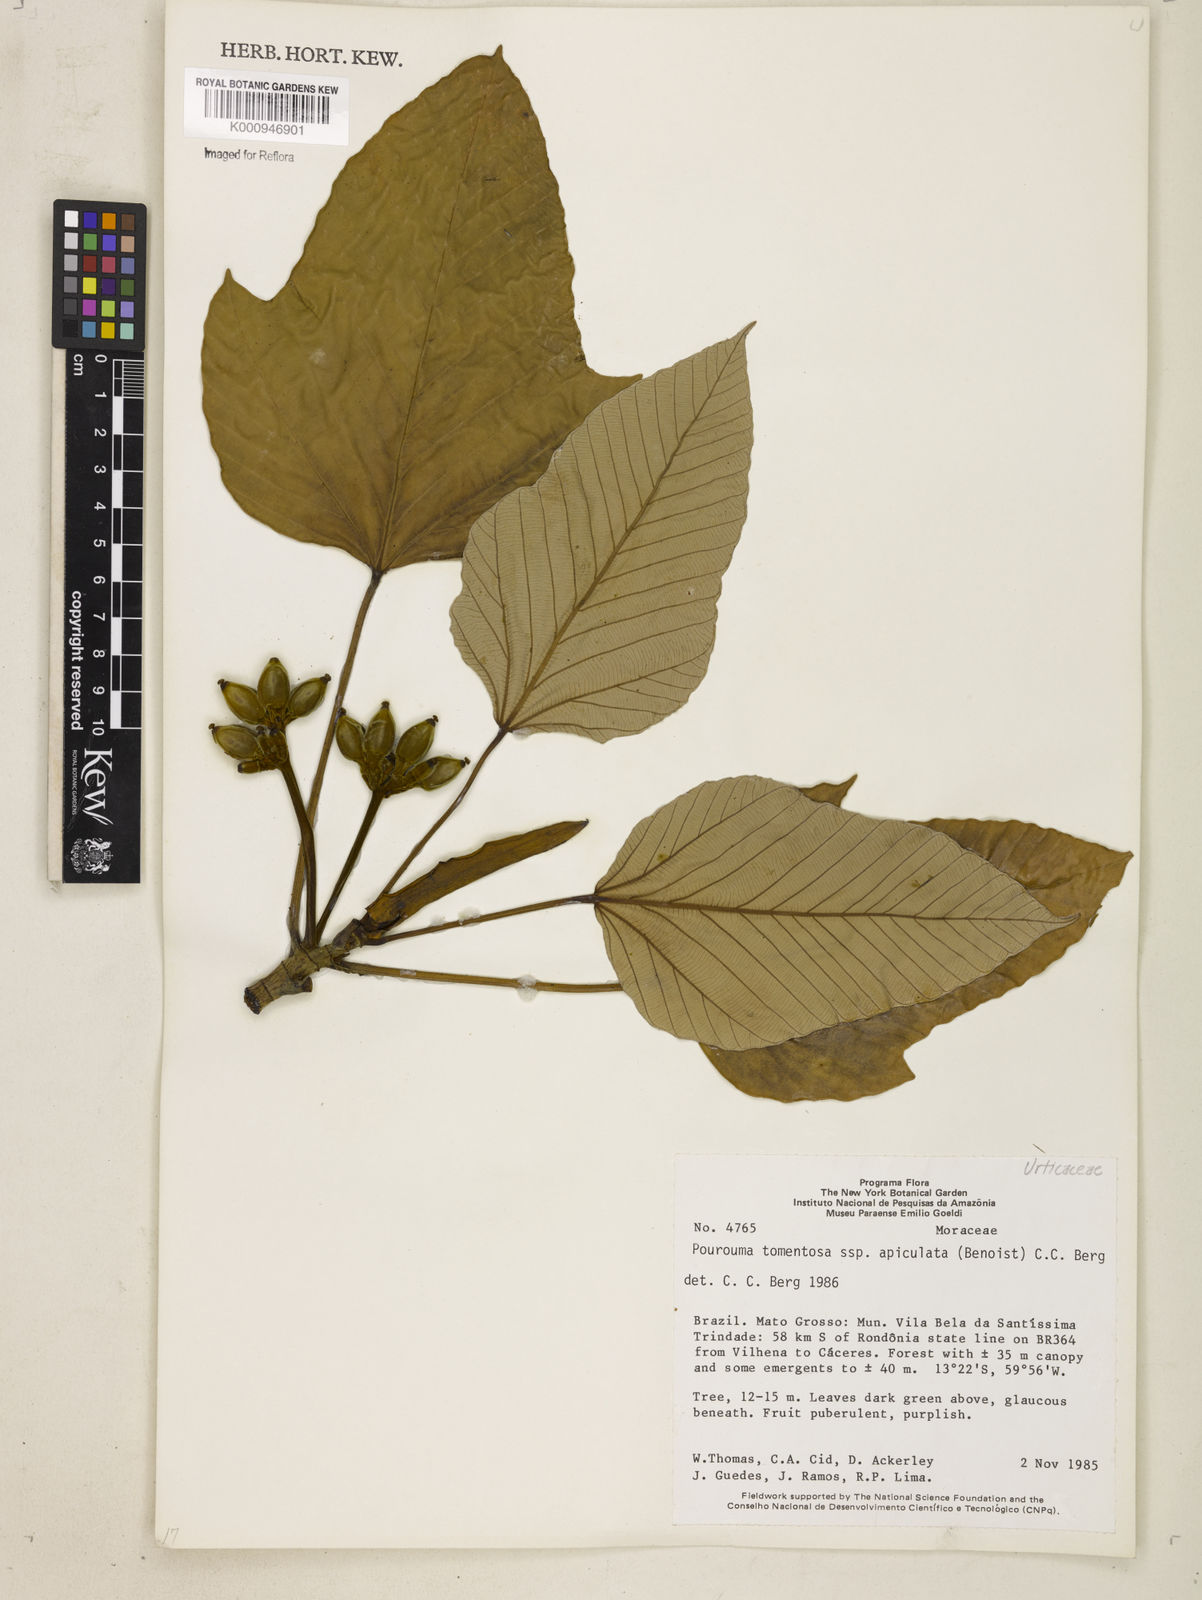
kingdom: Plantae
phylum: Tracheophyta
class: Magnoliopsida
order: Rosales
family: Urticaceae
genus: Pourouma
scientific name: Pourouma tomentosa
